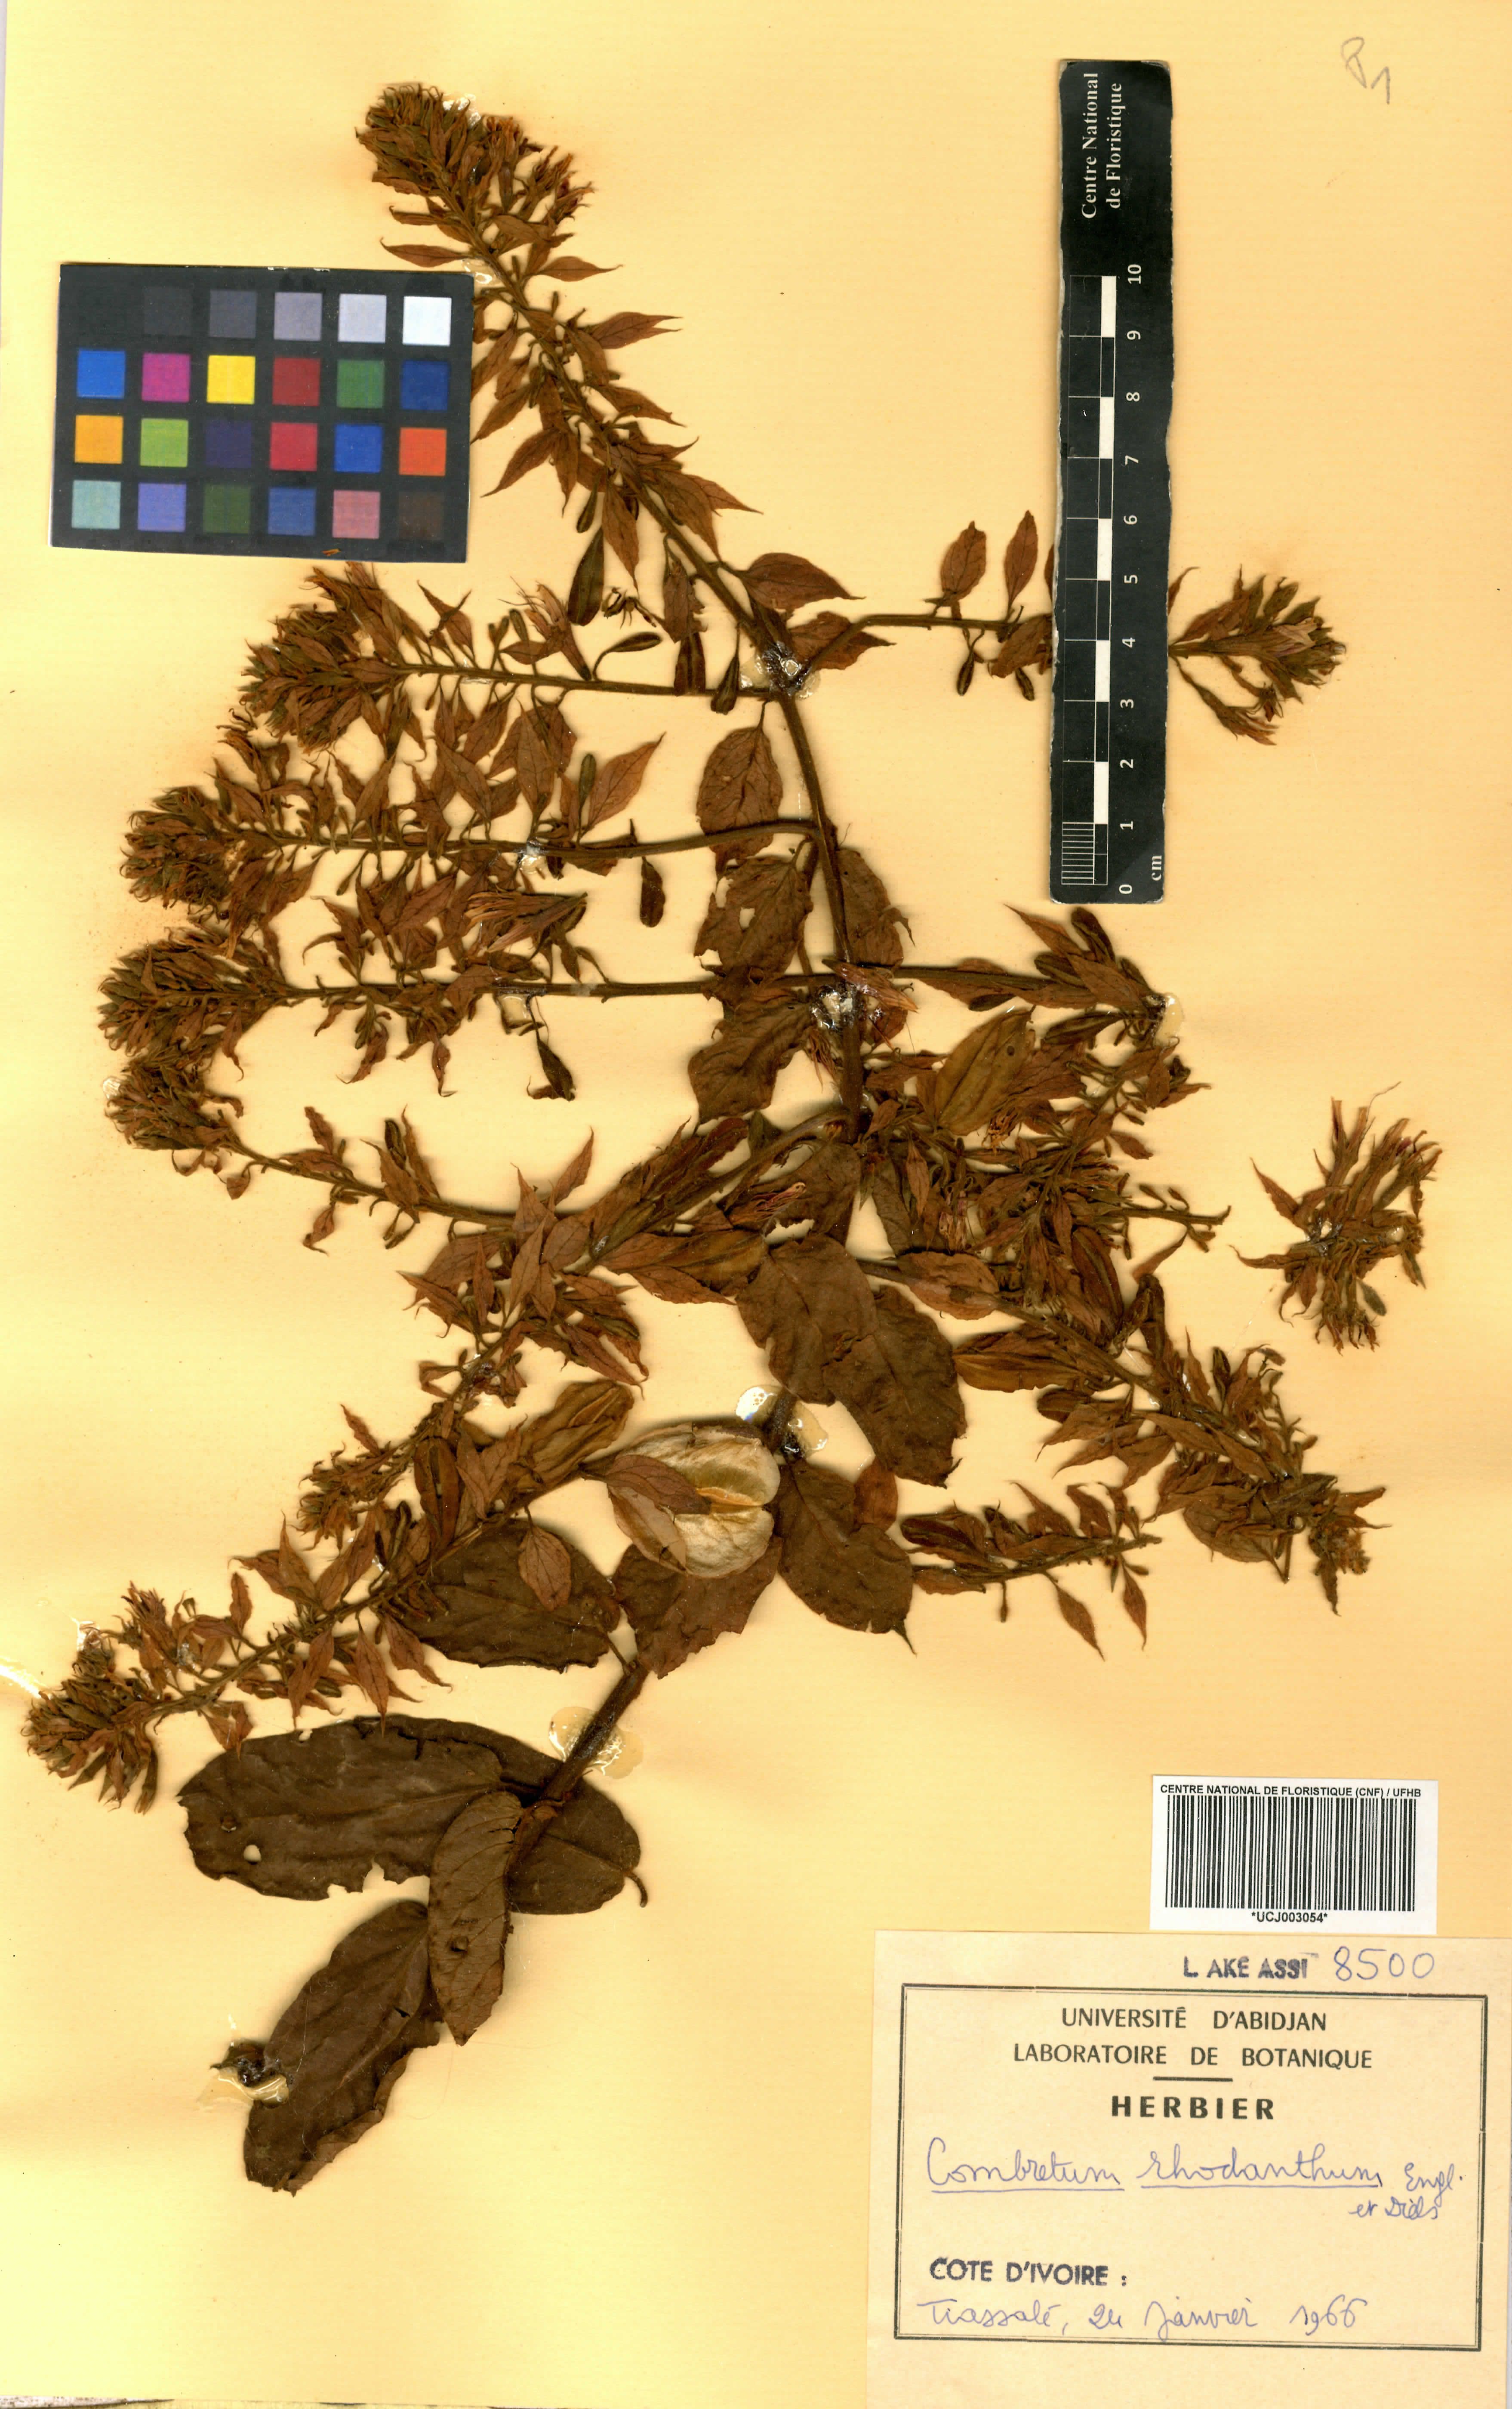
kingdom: Plantae
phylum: Tracheophyta
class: Magnoliopsida
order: Myrtales
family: Combretaceae
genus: Combretum
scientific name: Combretum comosum
